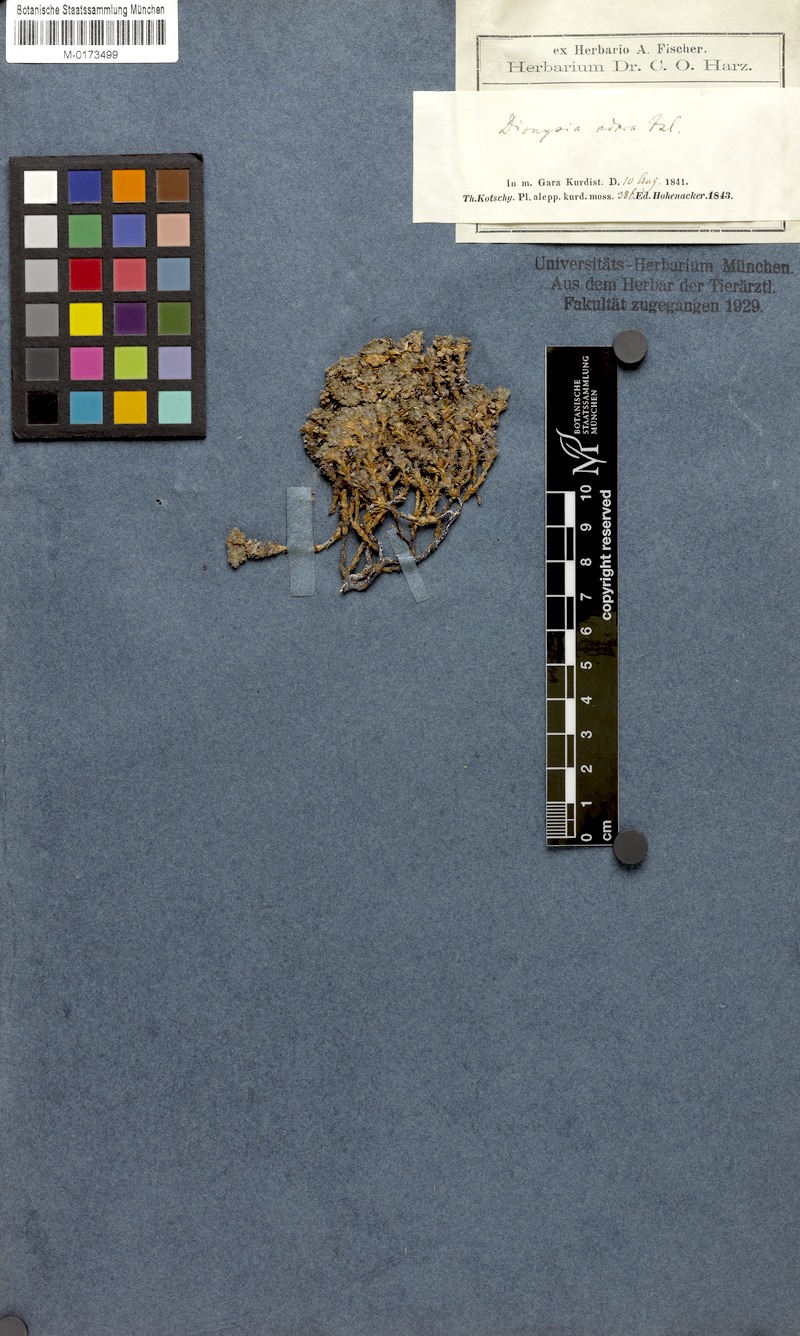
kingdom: Plantae
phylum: Tracheophyta
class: Magnoliopsida
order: Ericales
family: Primulaceae
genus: Dionysia
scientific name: Dionysia odora
